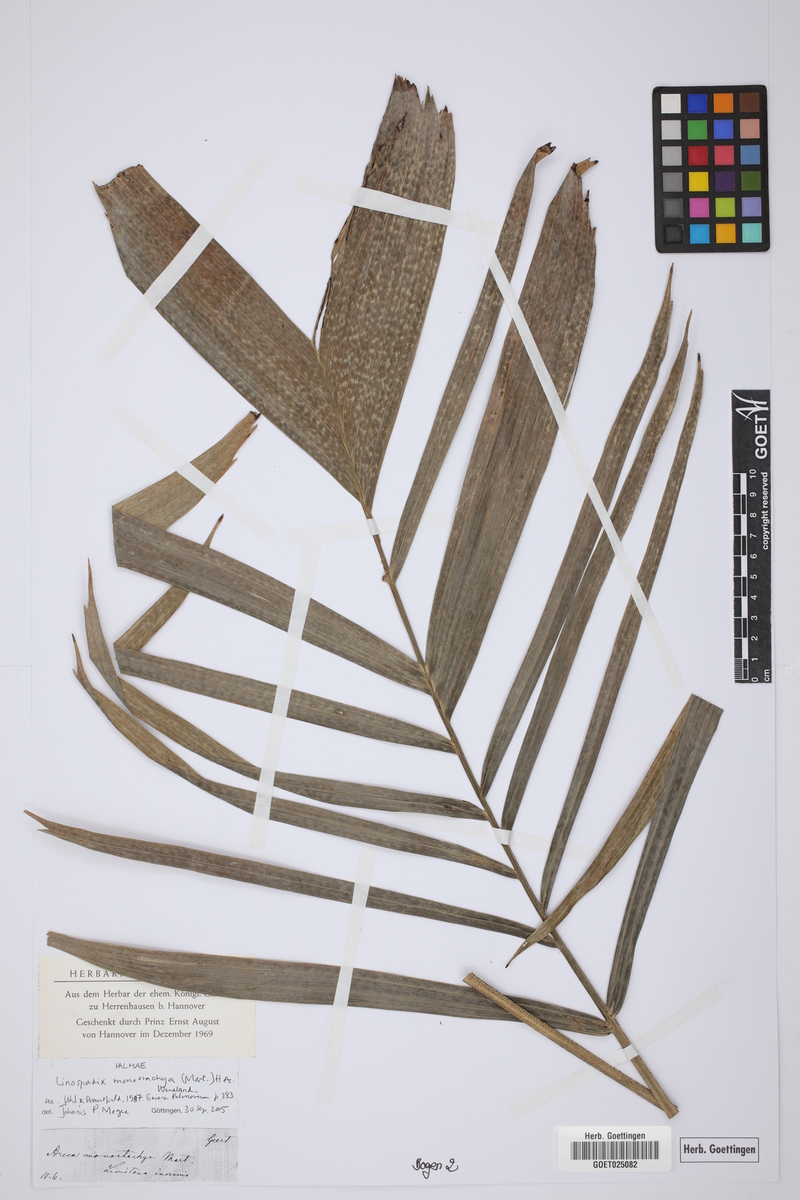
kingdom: Plantae
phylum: Tracheophyta
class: Liliopsida
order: Arecales
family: Arecaceae
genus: Linospadix
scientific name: Linospadix monostachyos
